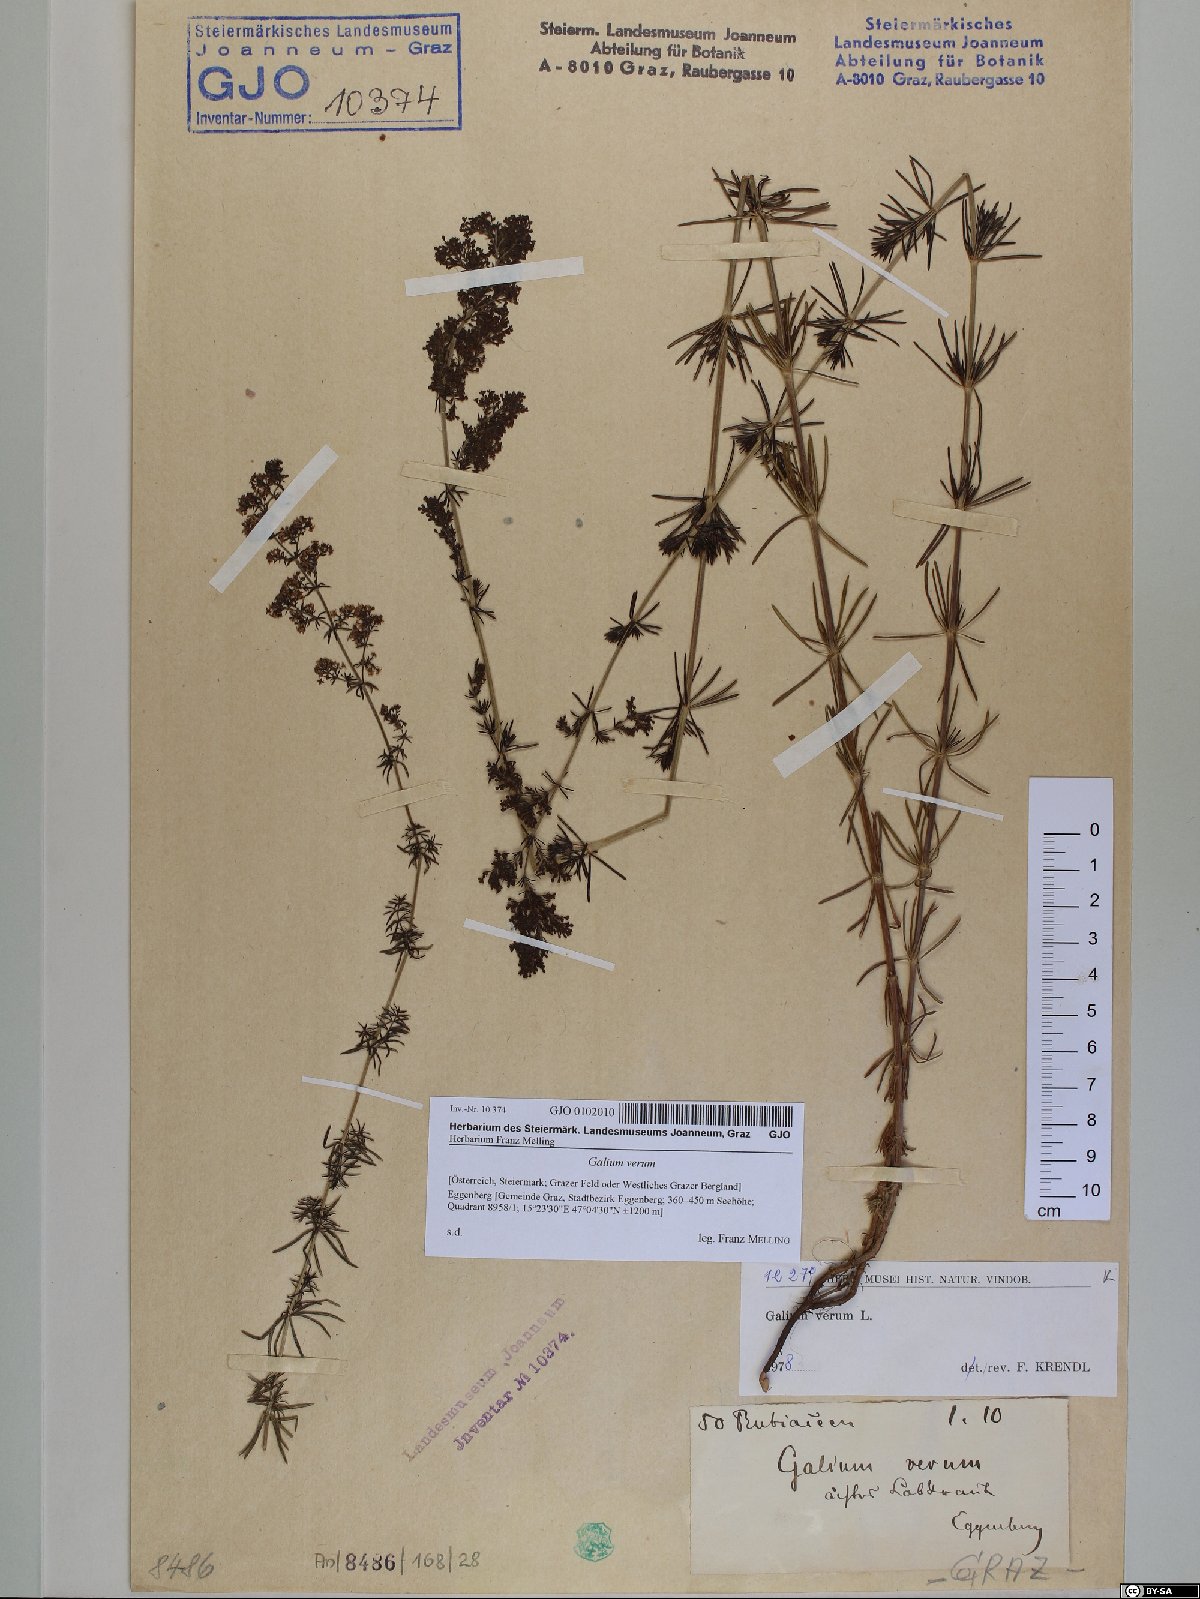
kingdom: Plantae
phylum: Tracheophyta
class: Magnoliopsida
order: Gentianales
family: Rubiaceae
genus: Galium
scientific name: Galium verum
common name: Lady's bedstraw
